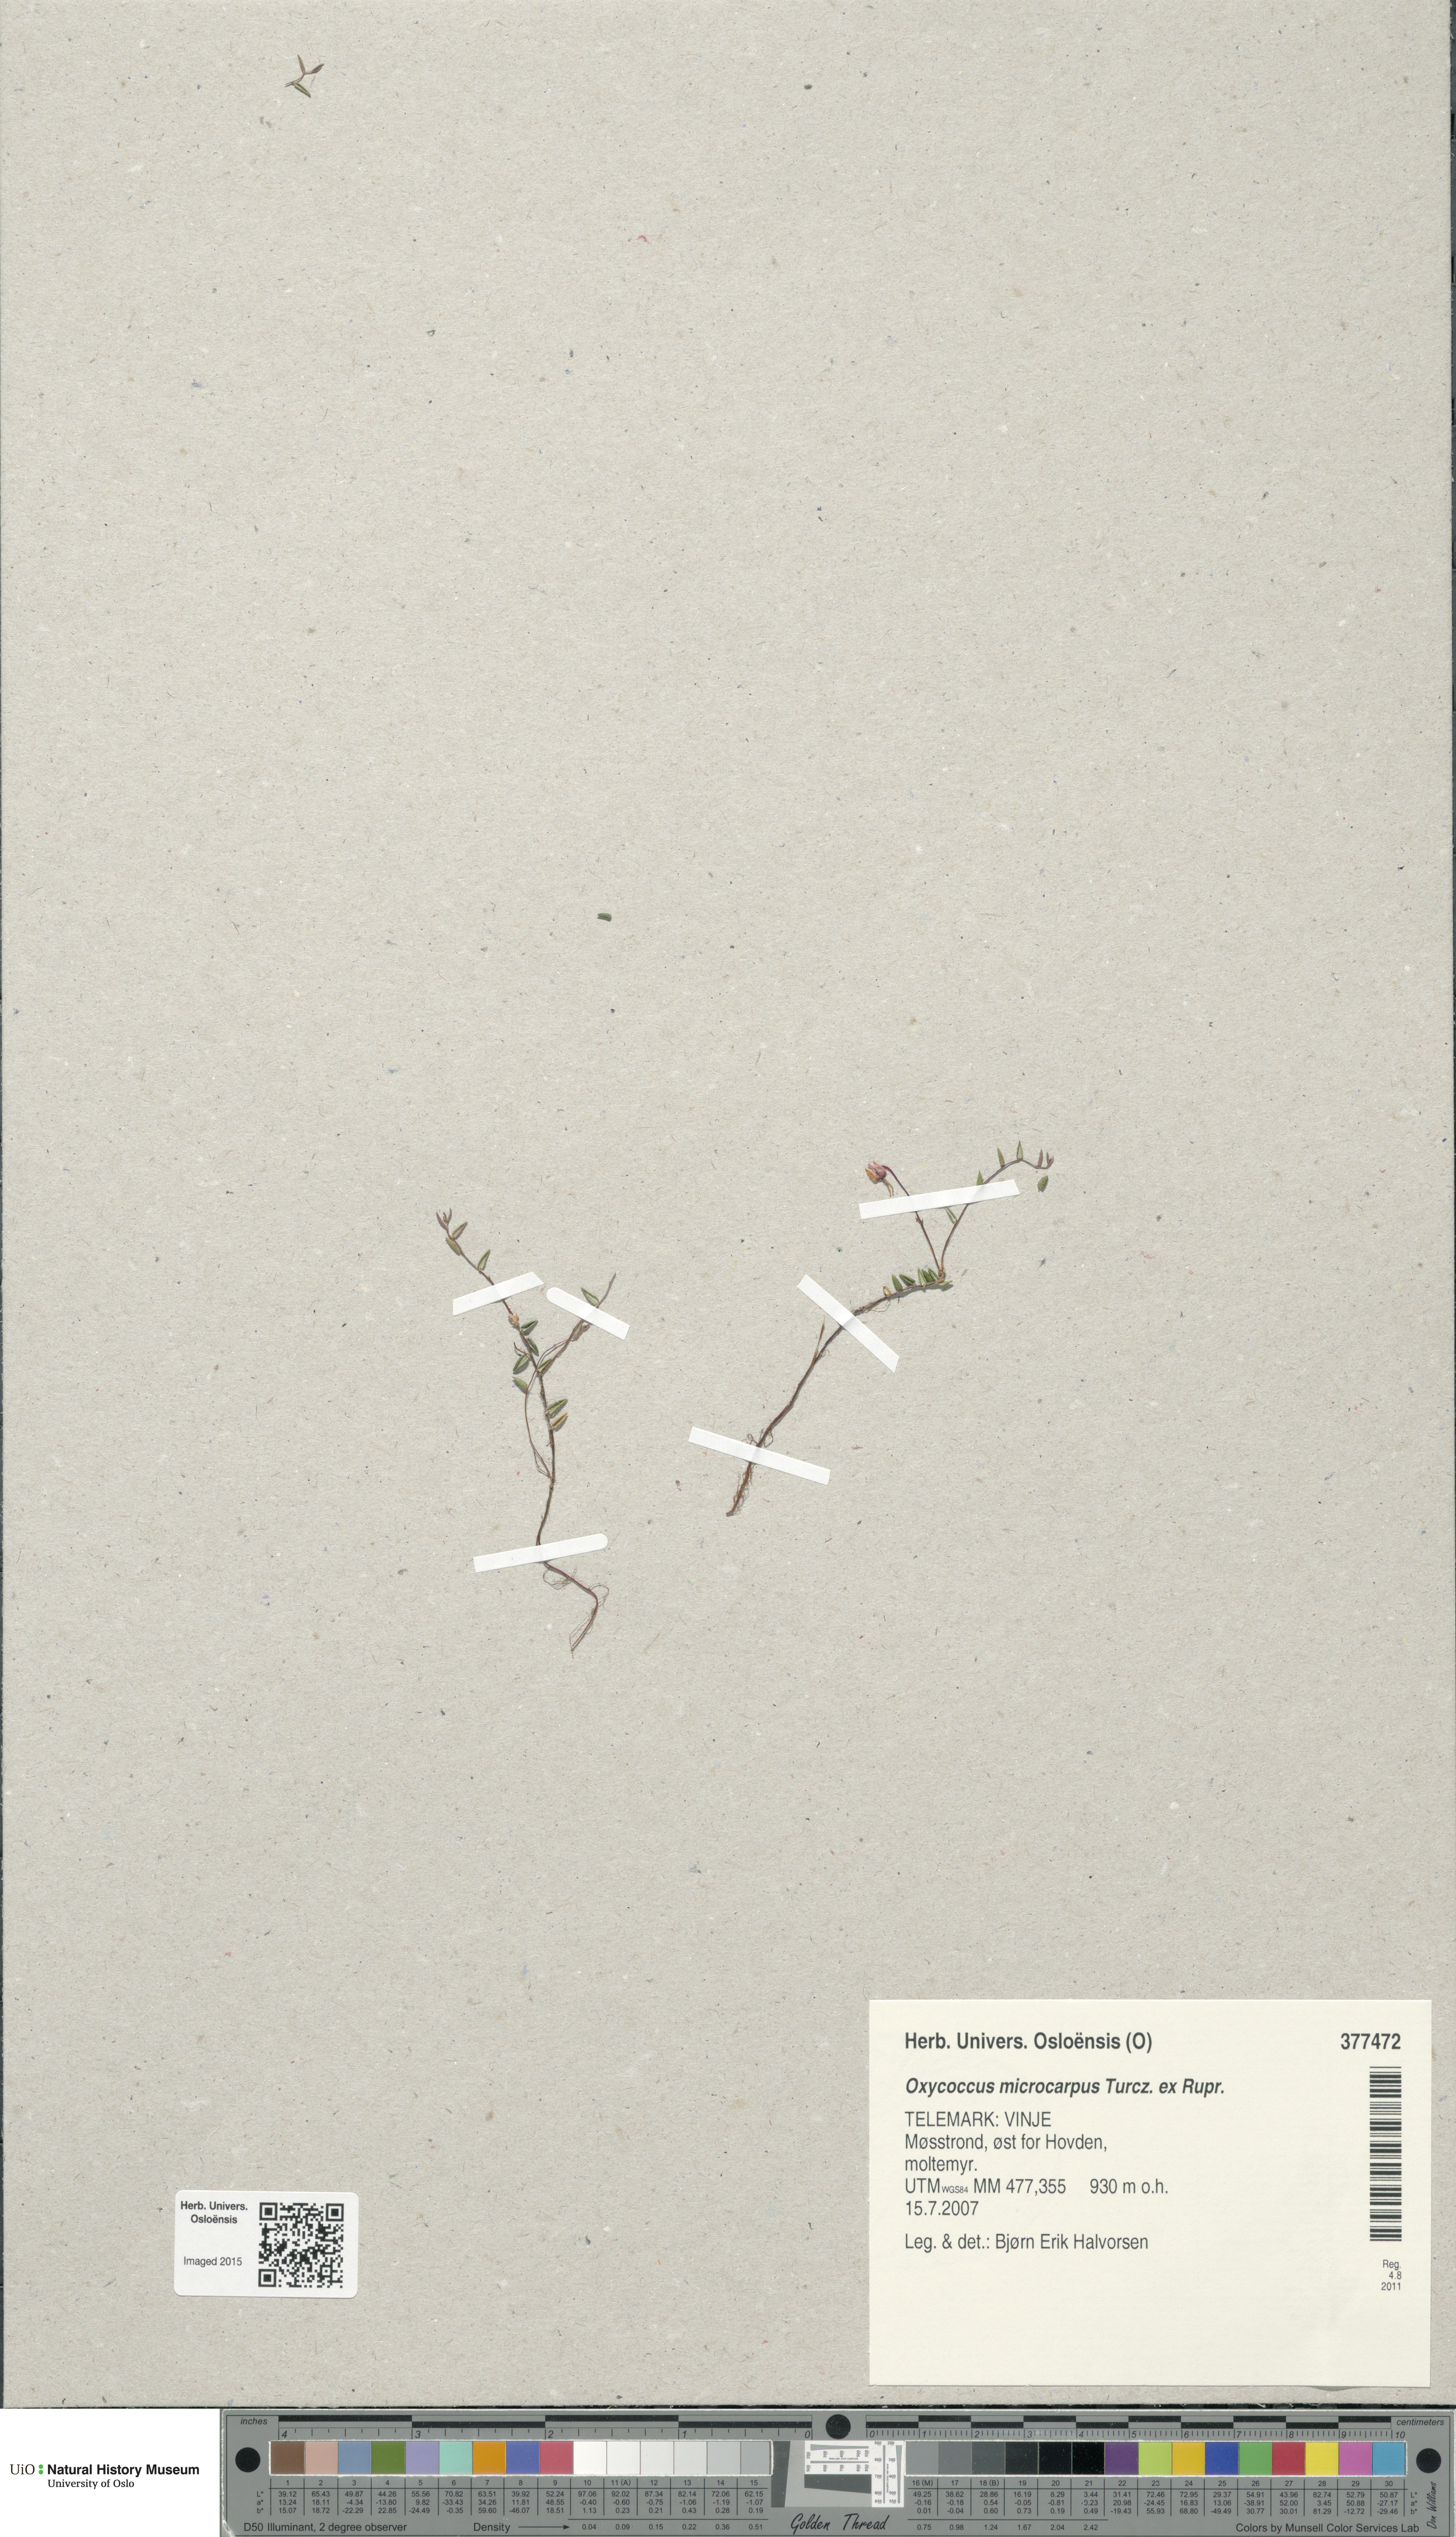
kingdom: Plantae
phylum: Tracheophyta
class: Magnoliopsida
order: Ericales
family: Ericaceae
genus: Vaccinium
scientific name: Vaccinium microcarpum
